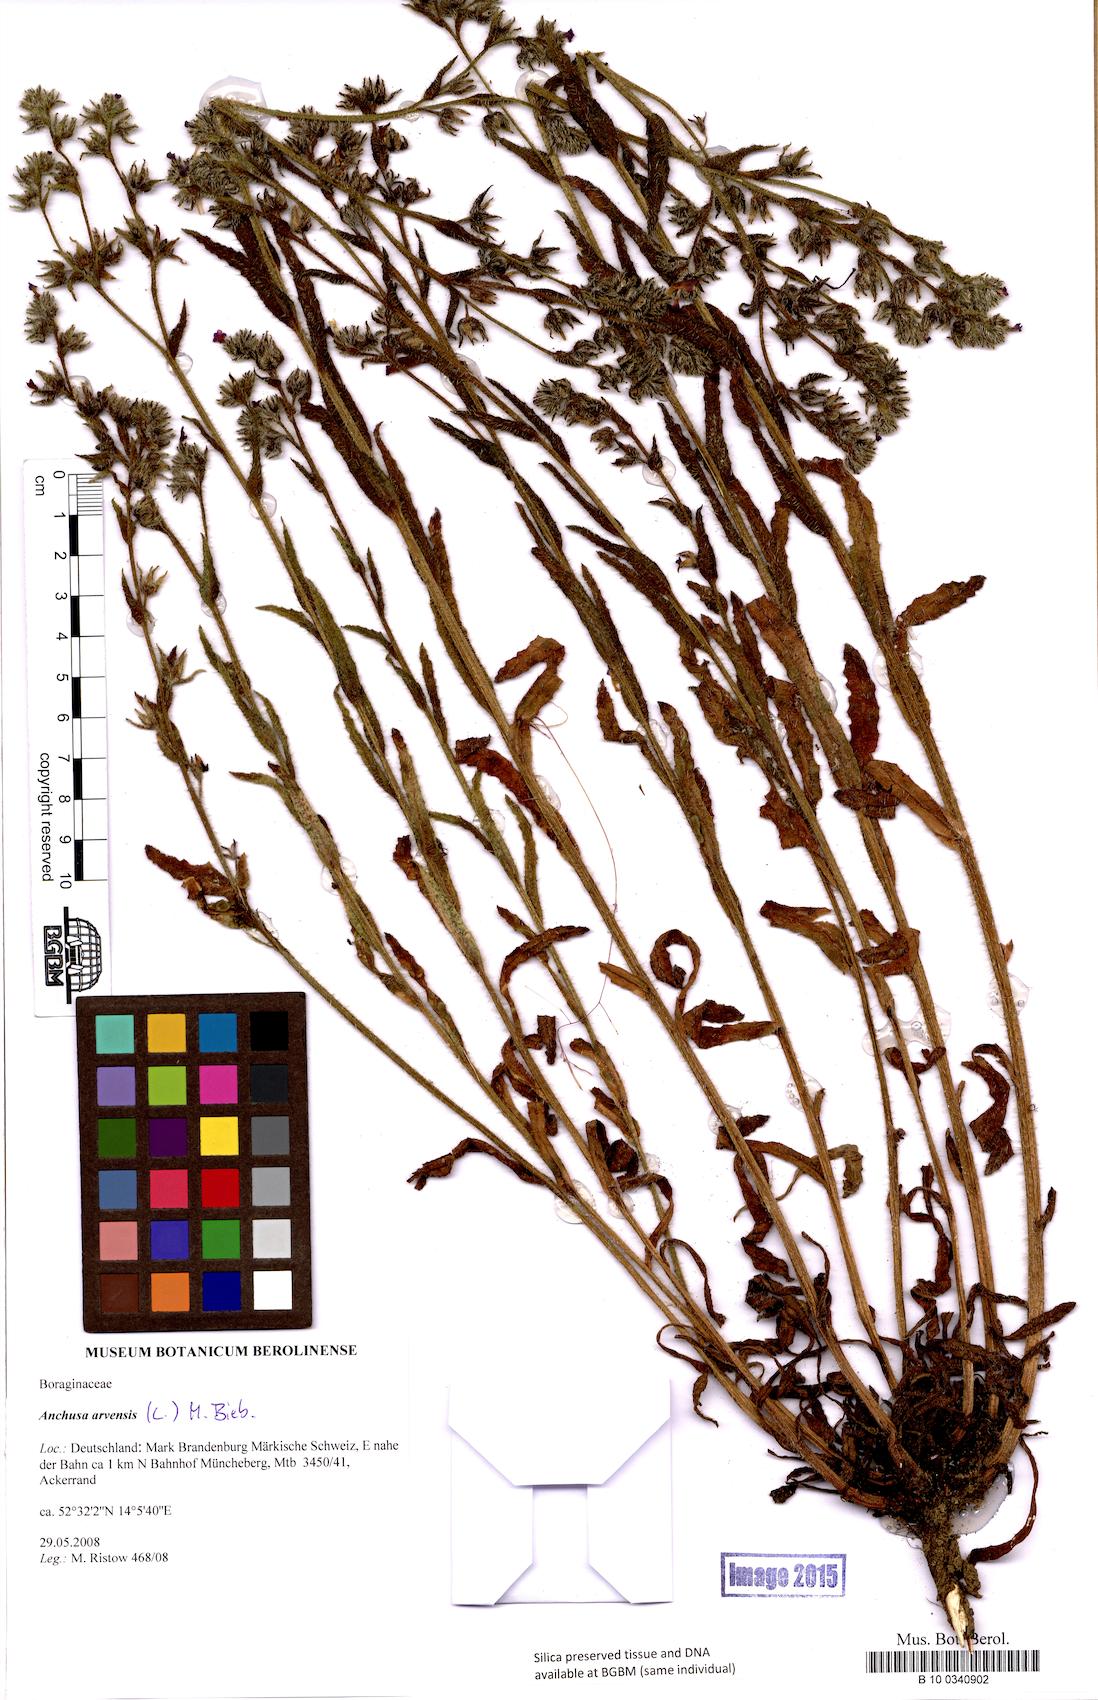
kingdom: Plantae
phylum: Tracheophyta
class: Magnoliopsida
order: Boraginales
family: Boraginaceae
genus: Lycopsis
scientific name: Lycopsis arvensis
